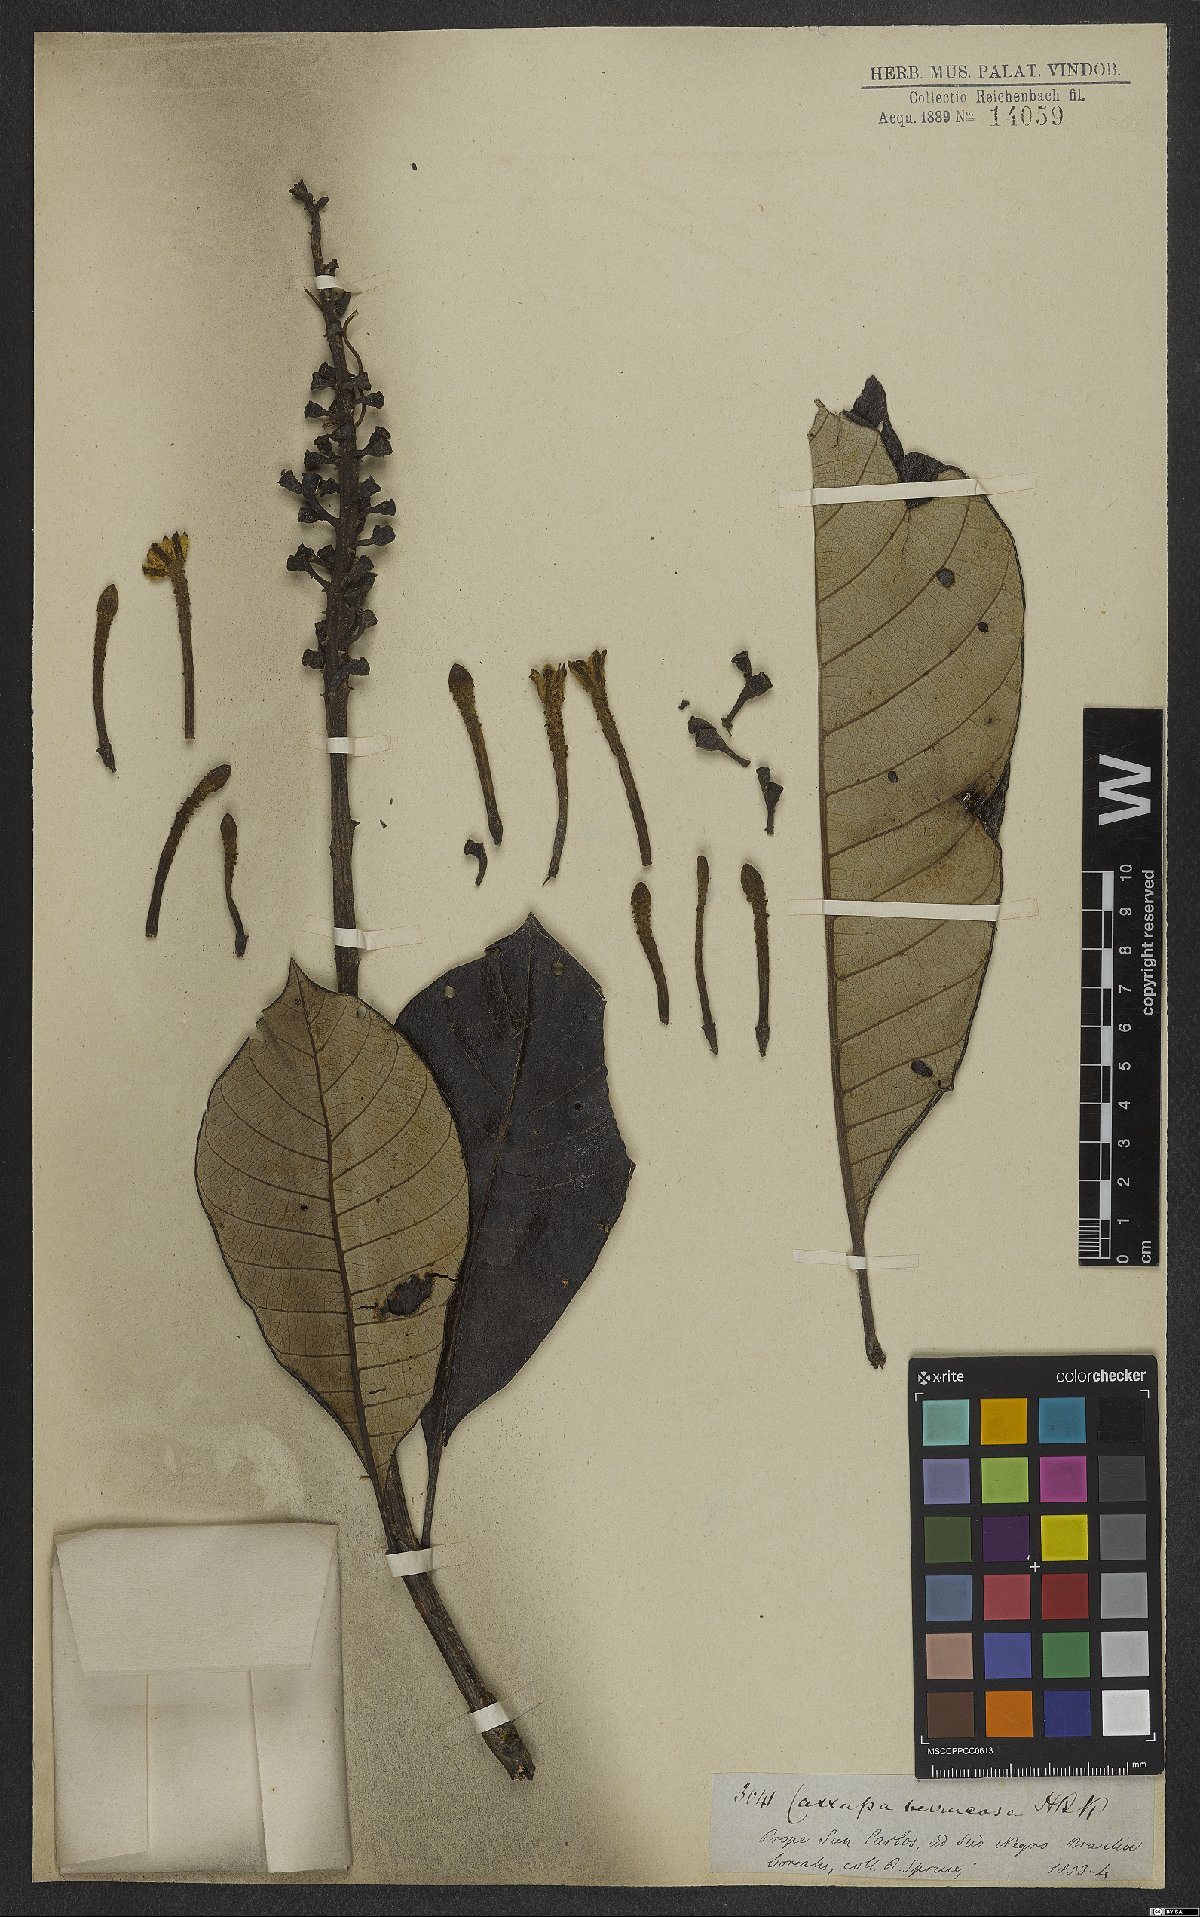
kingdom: Plantae
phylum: Tracheophyta
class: Magnoliopsida
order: Gentianales
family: Rubiaceae
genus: Isertia
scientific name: Isertia verrucosa
